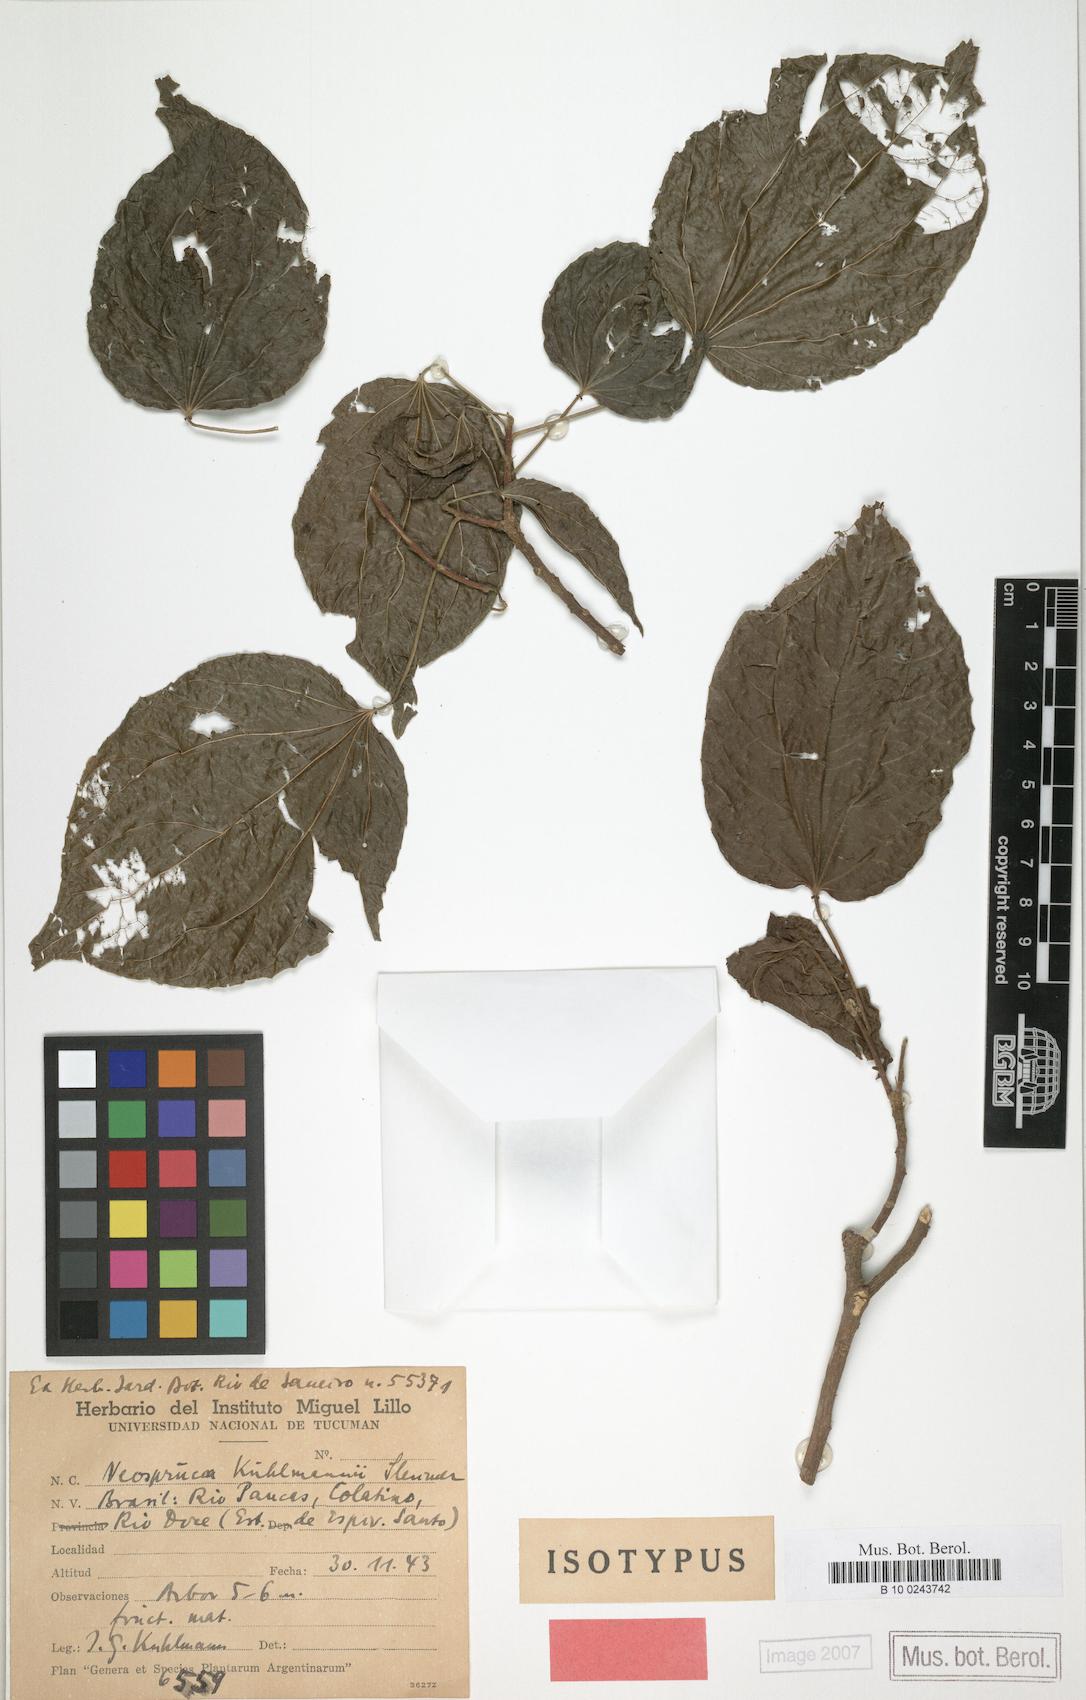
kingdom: Plantae
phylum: Tracheophyta
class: Magnoliopsida
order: Malpighiales
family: Salicaceae
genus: Macrothumia
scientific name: Macrothumia kuhlmannii
